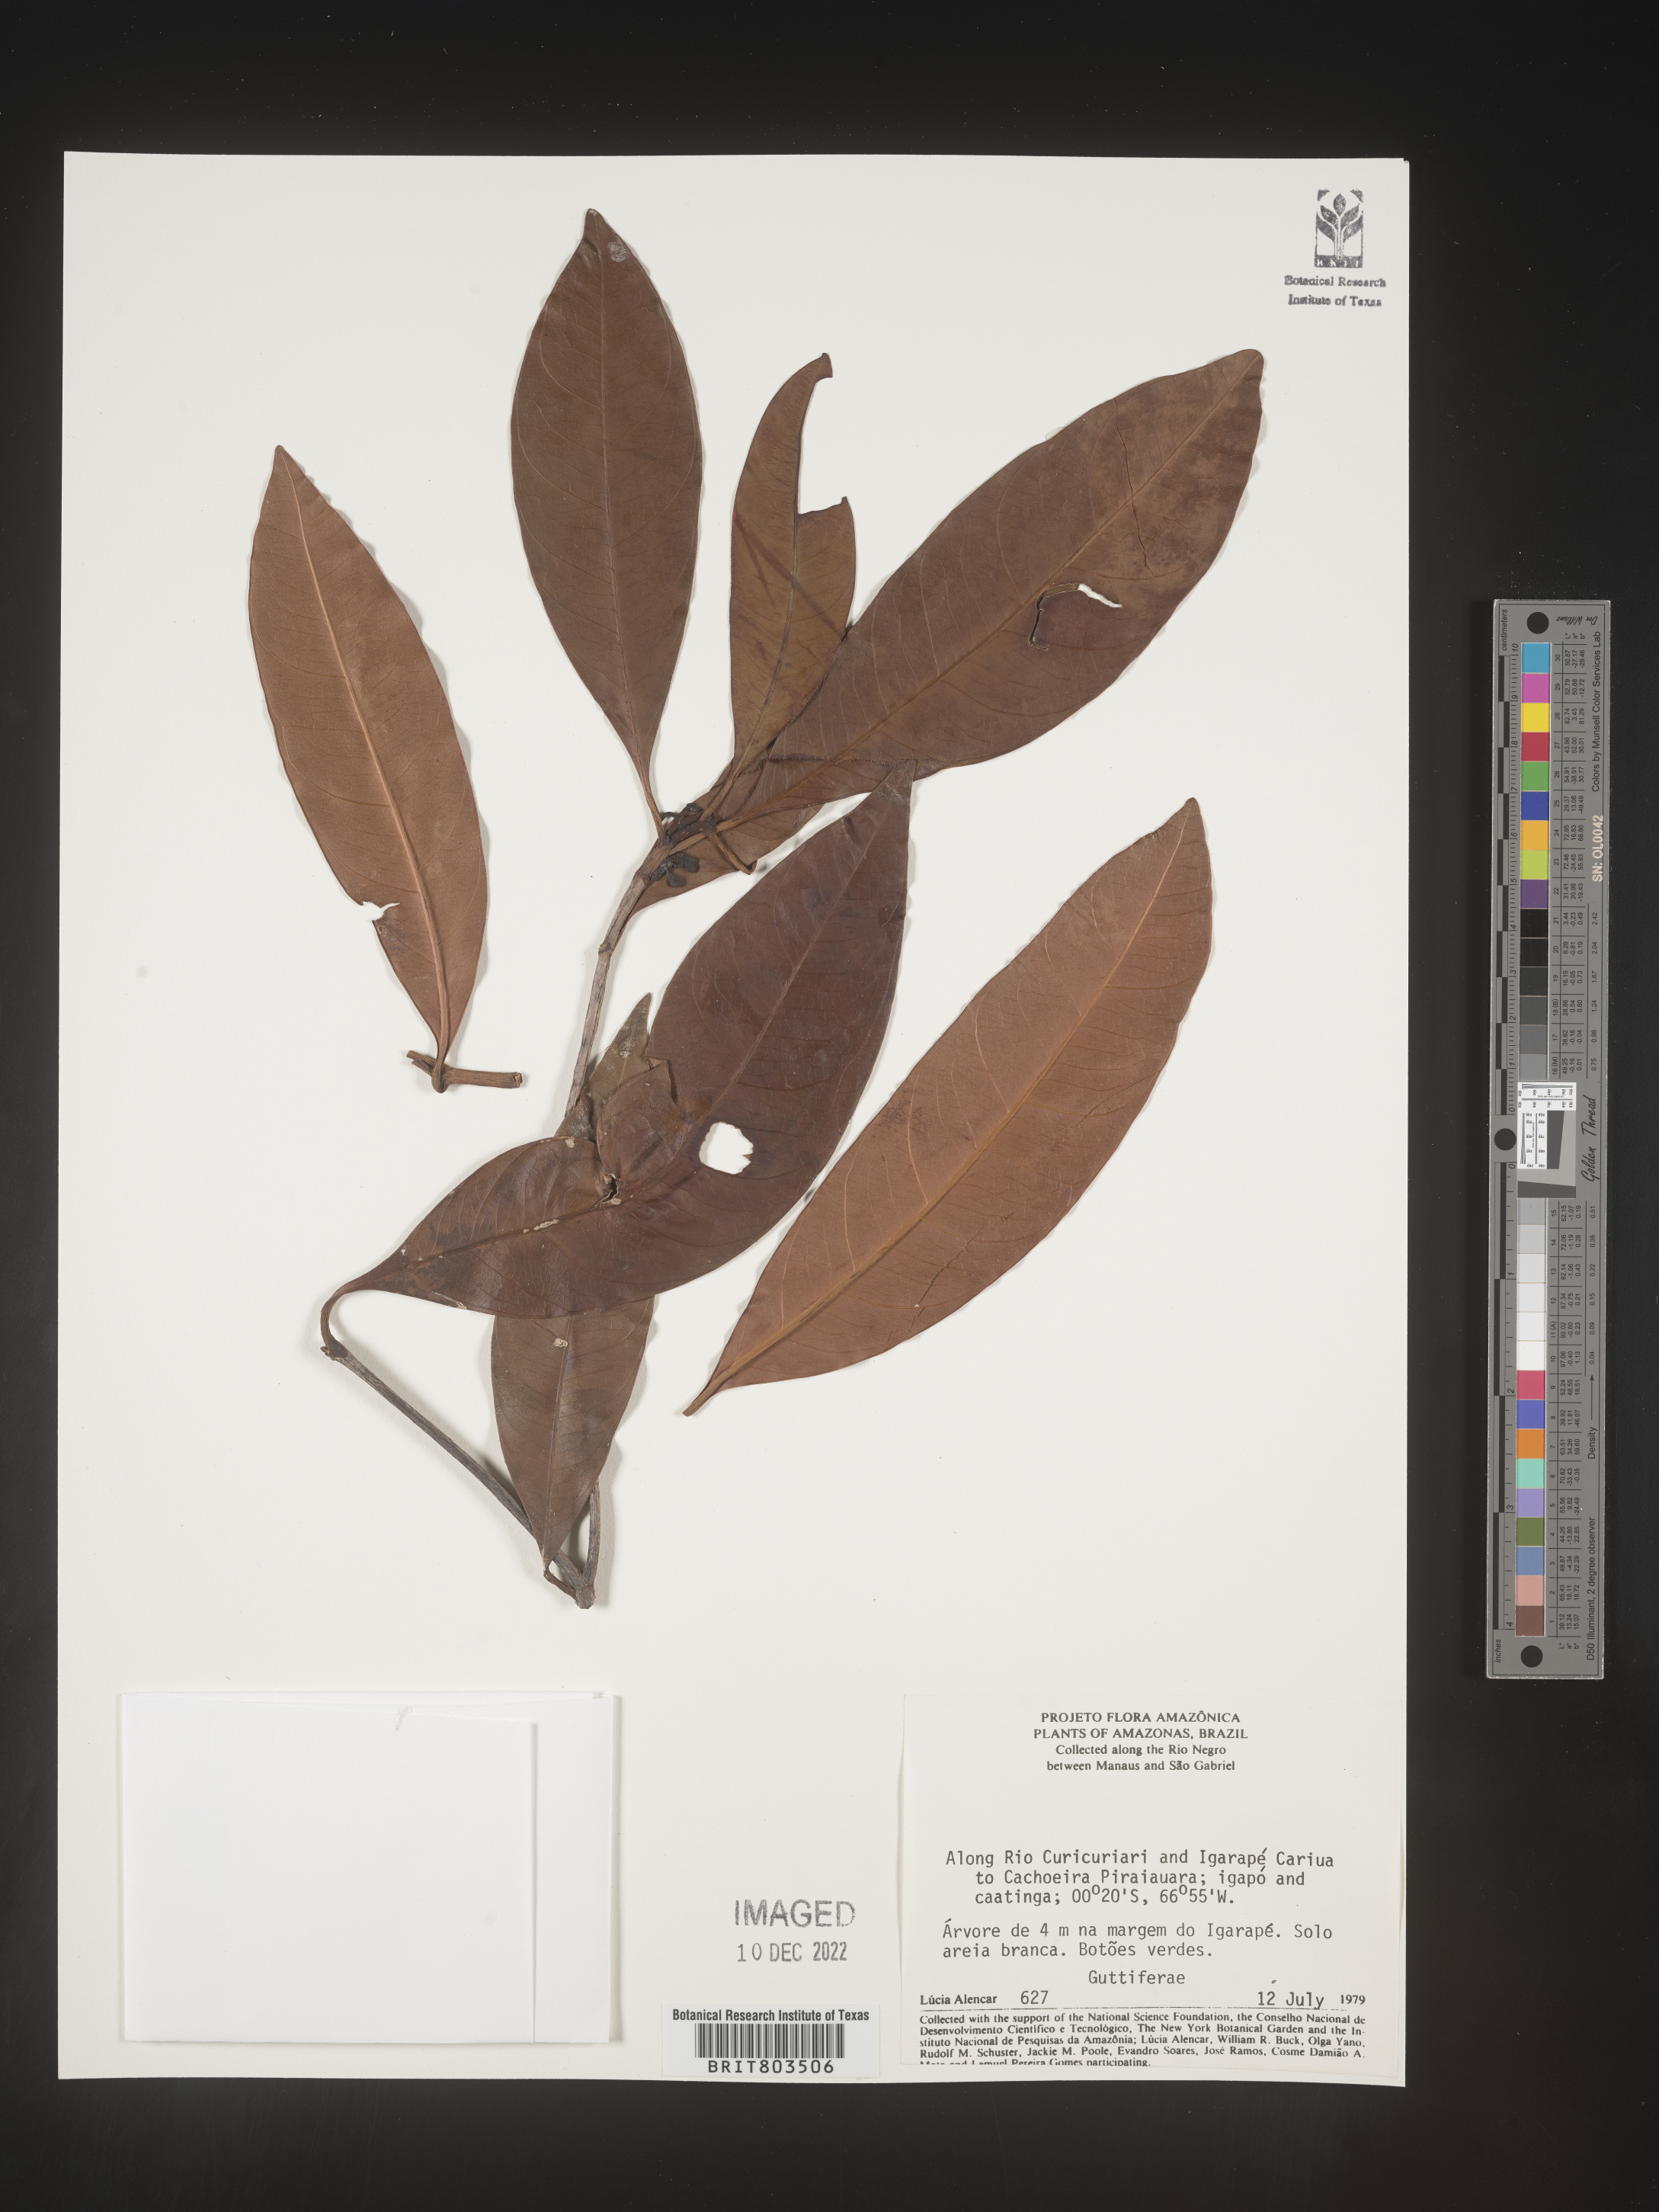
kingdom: Plantae
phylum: Tracheophyta
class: Magnoliopsida
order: Malpighiales
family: Clusiaceae
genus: Tovomita
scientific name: Tovomita
